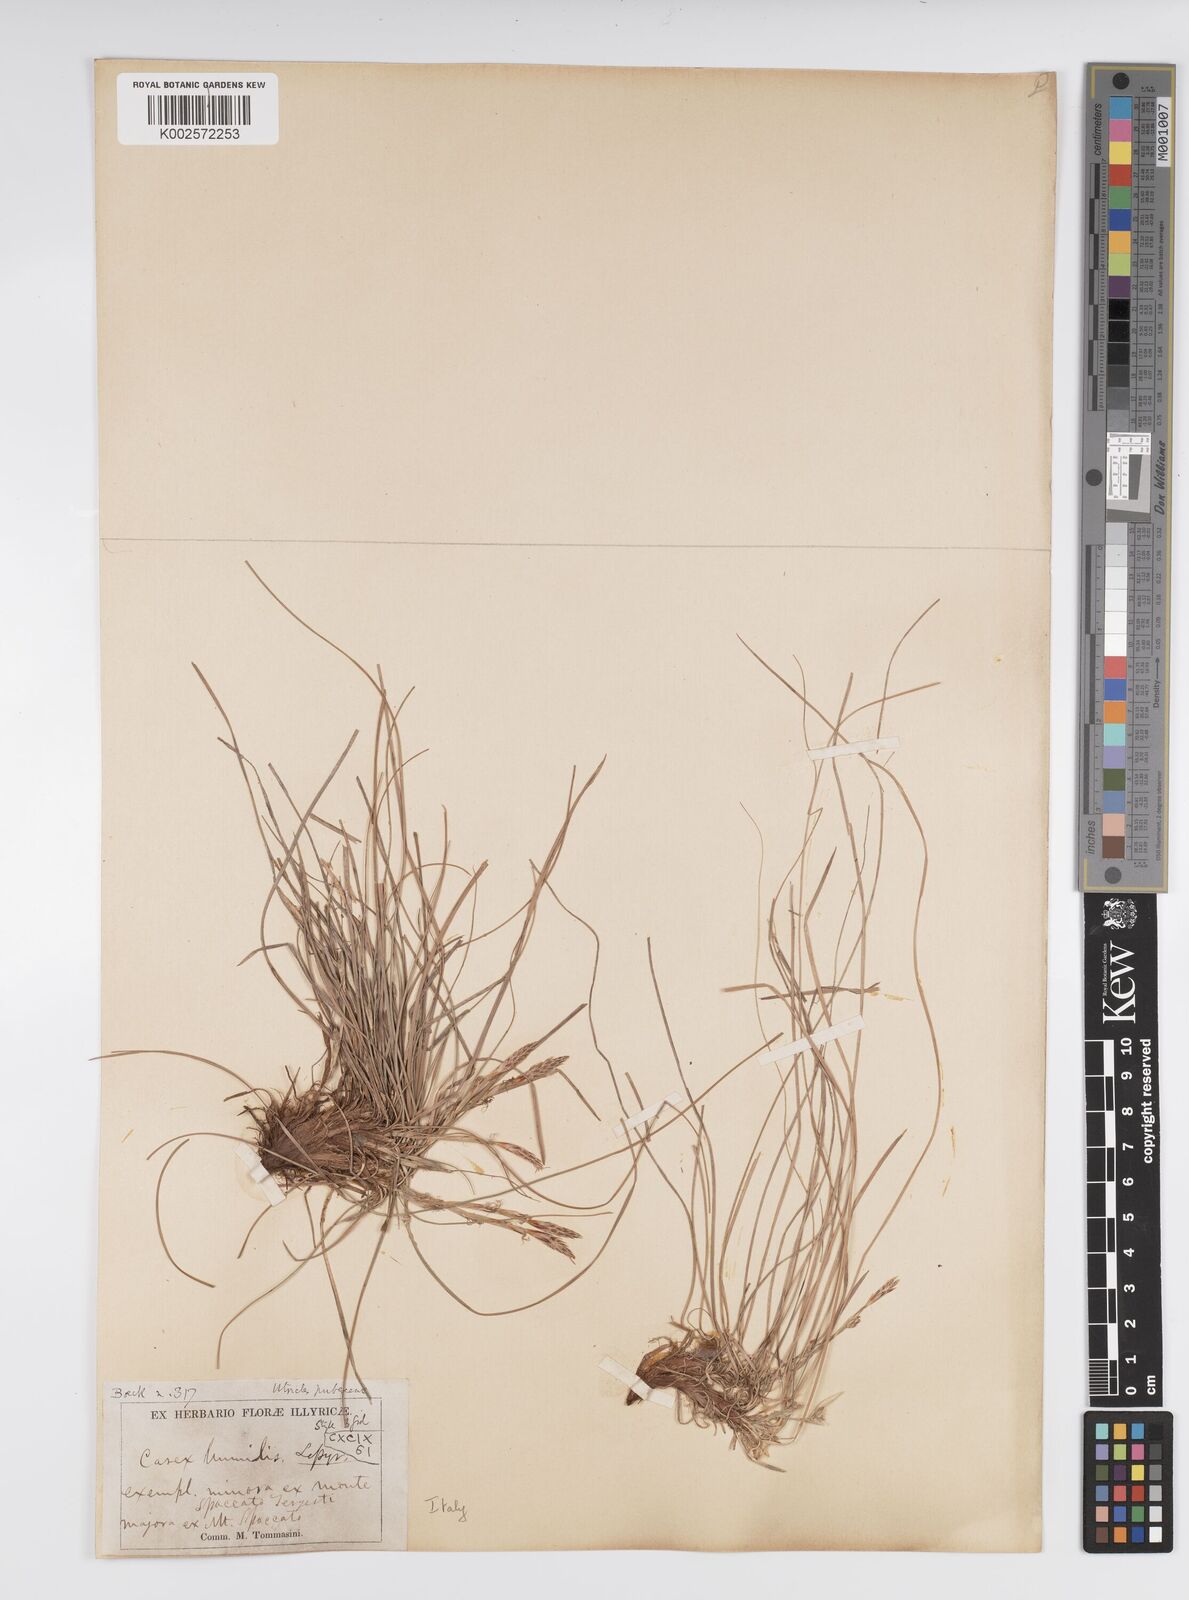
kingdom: Plantae
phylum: Tracheophyta
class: Liliopsida
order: Poales
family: Cyperaceae
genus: Carex
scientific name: Carex humilis
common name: Dwarf sedge
